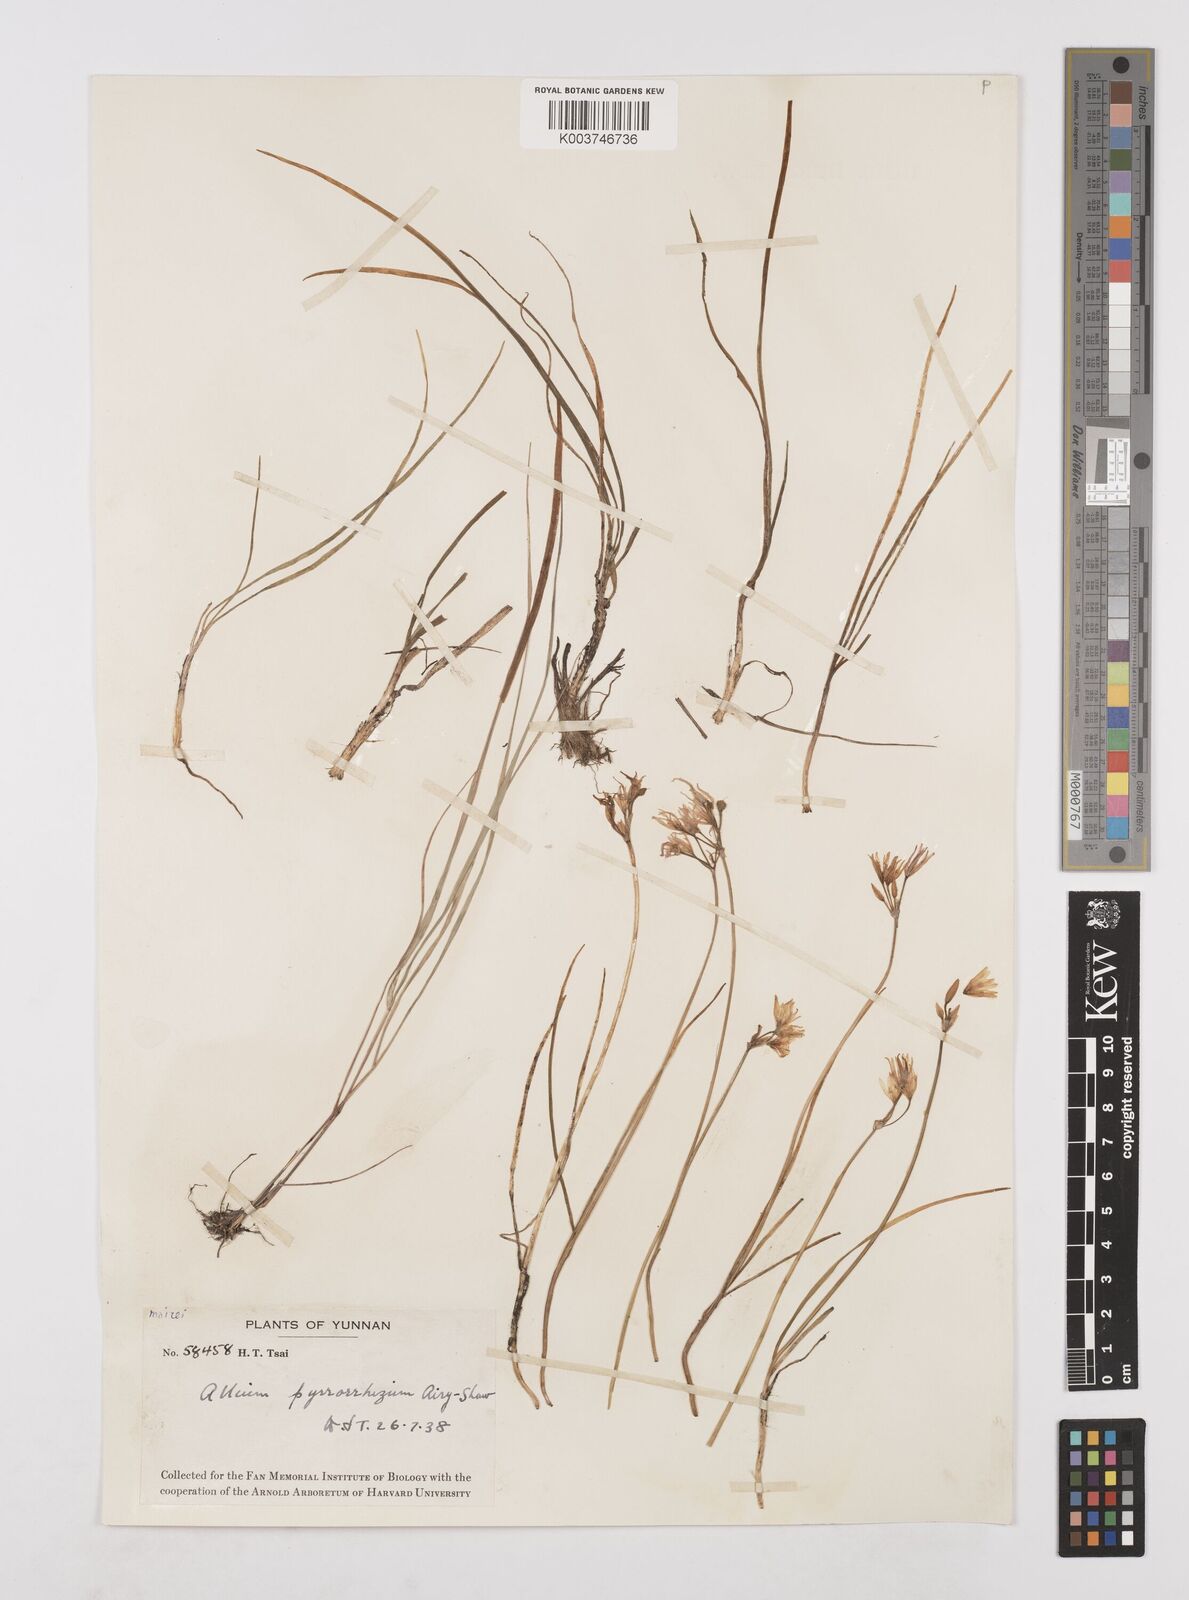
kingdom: Plantae
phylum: Tracheophyta
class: Liliopsida
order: Asparagales
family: Amaryllidaceae
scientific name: Amaryllidaceae
